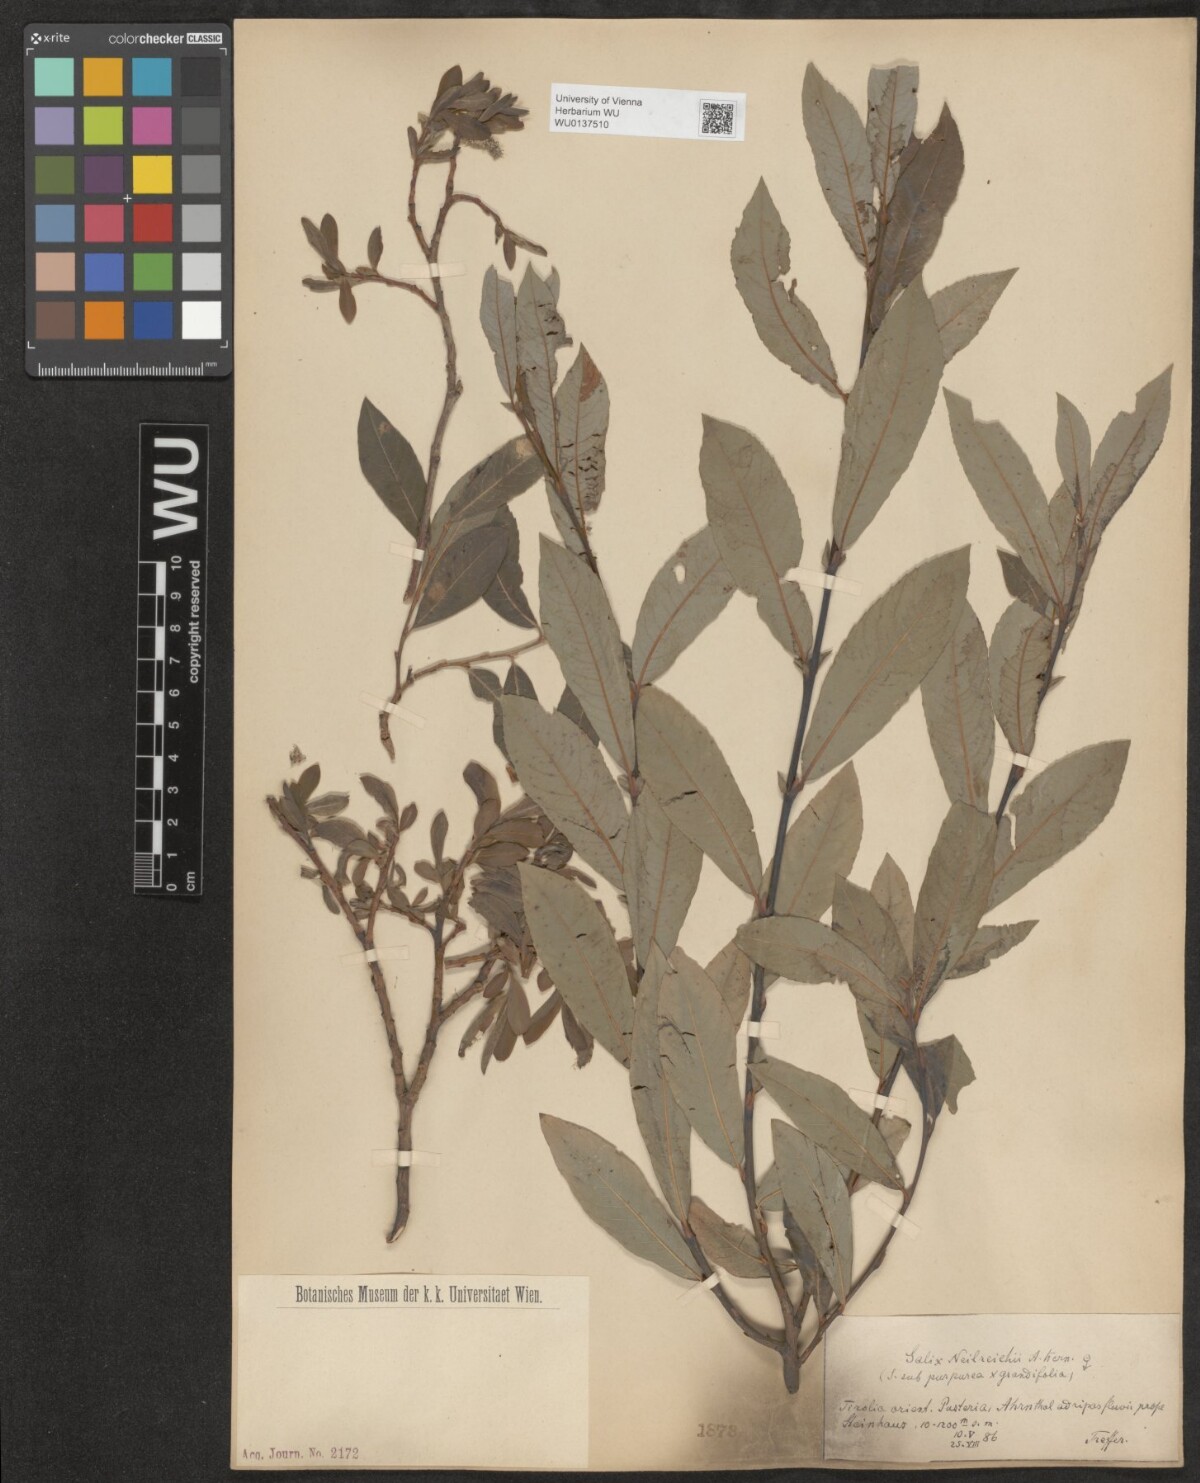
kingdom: Plantae
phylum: Tracheophyta
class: Magnoliopsida
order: Malpighiales
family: Salicaceae
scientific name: Salicaceae
